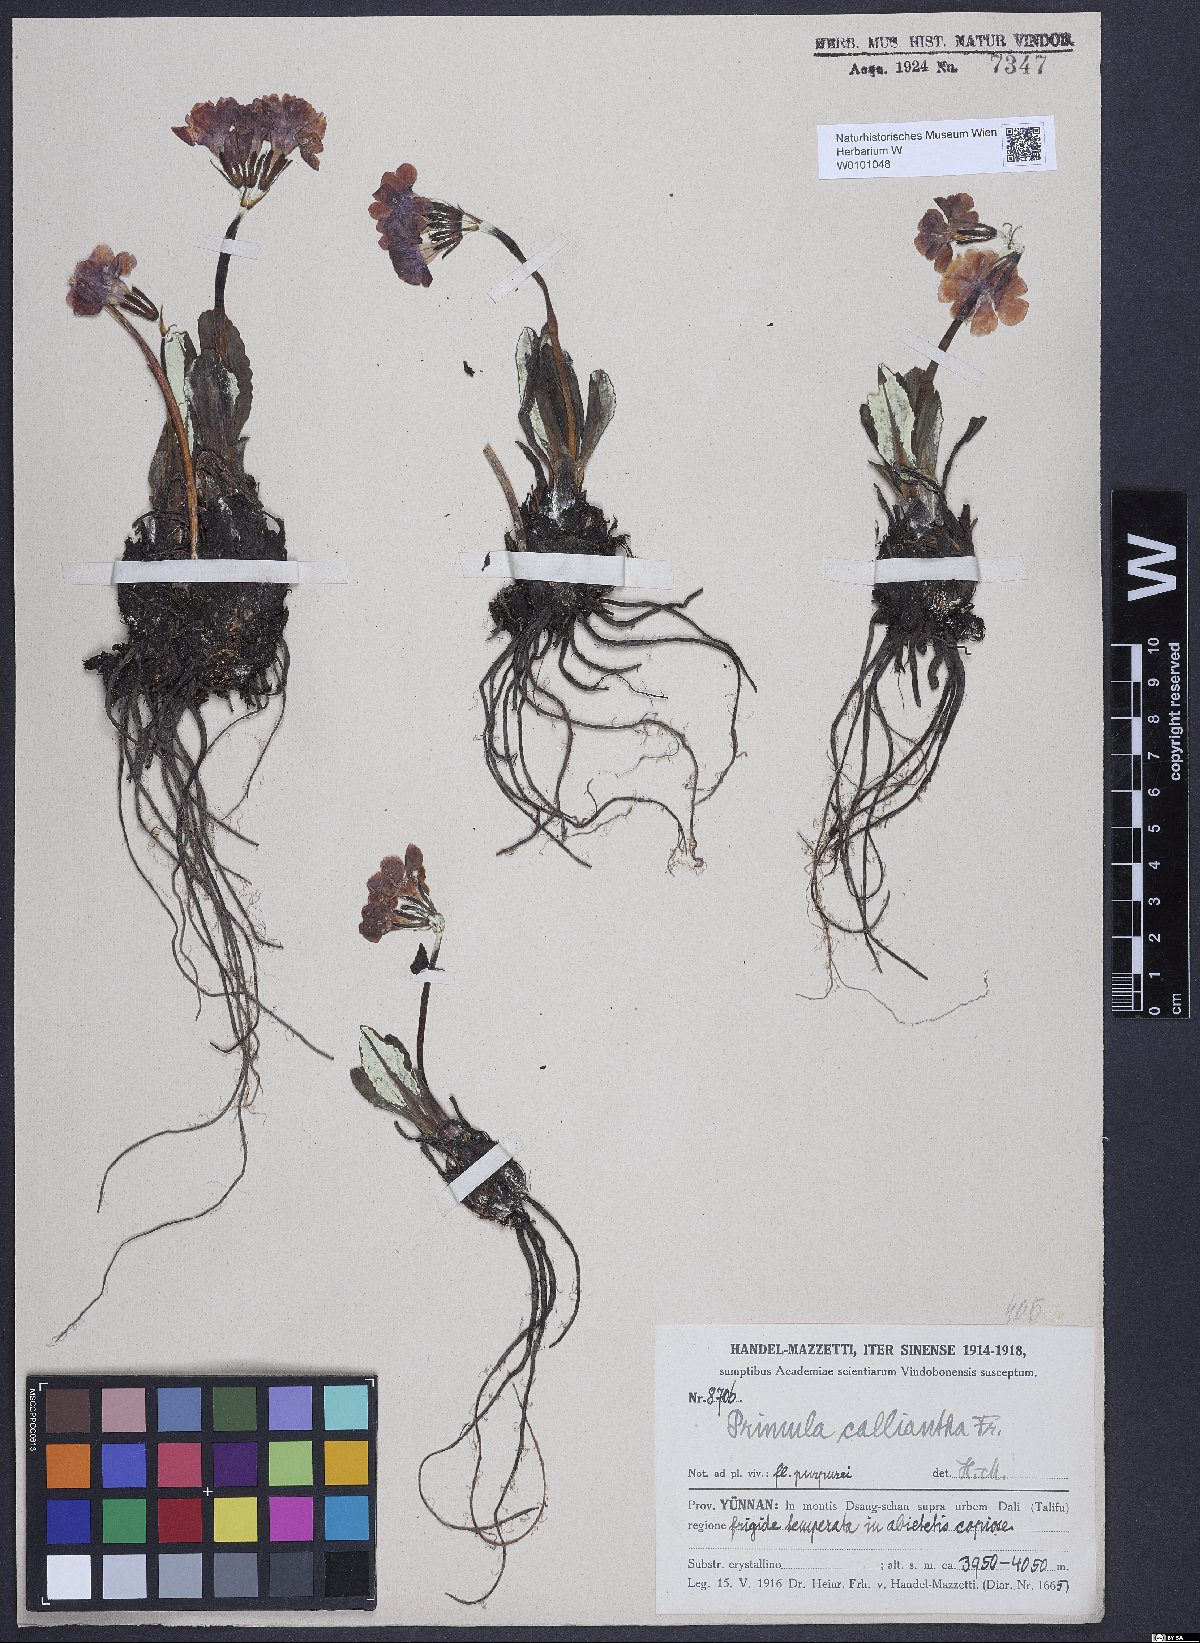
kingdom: Plantae
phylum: Tracheophyta
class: Magnoliopsida
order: Ericales
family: Primulaceae
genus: Primula
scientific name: Primula calliantha
